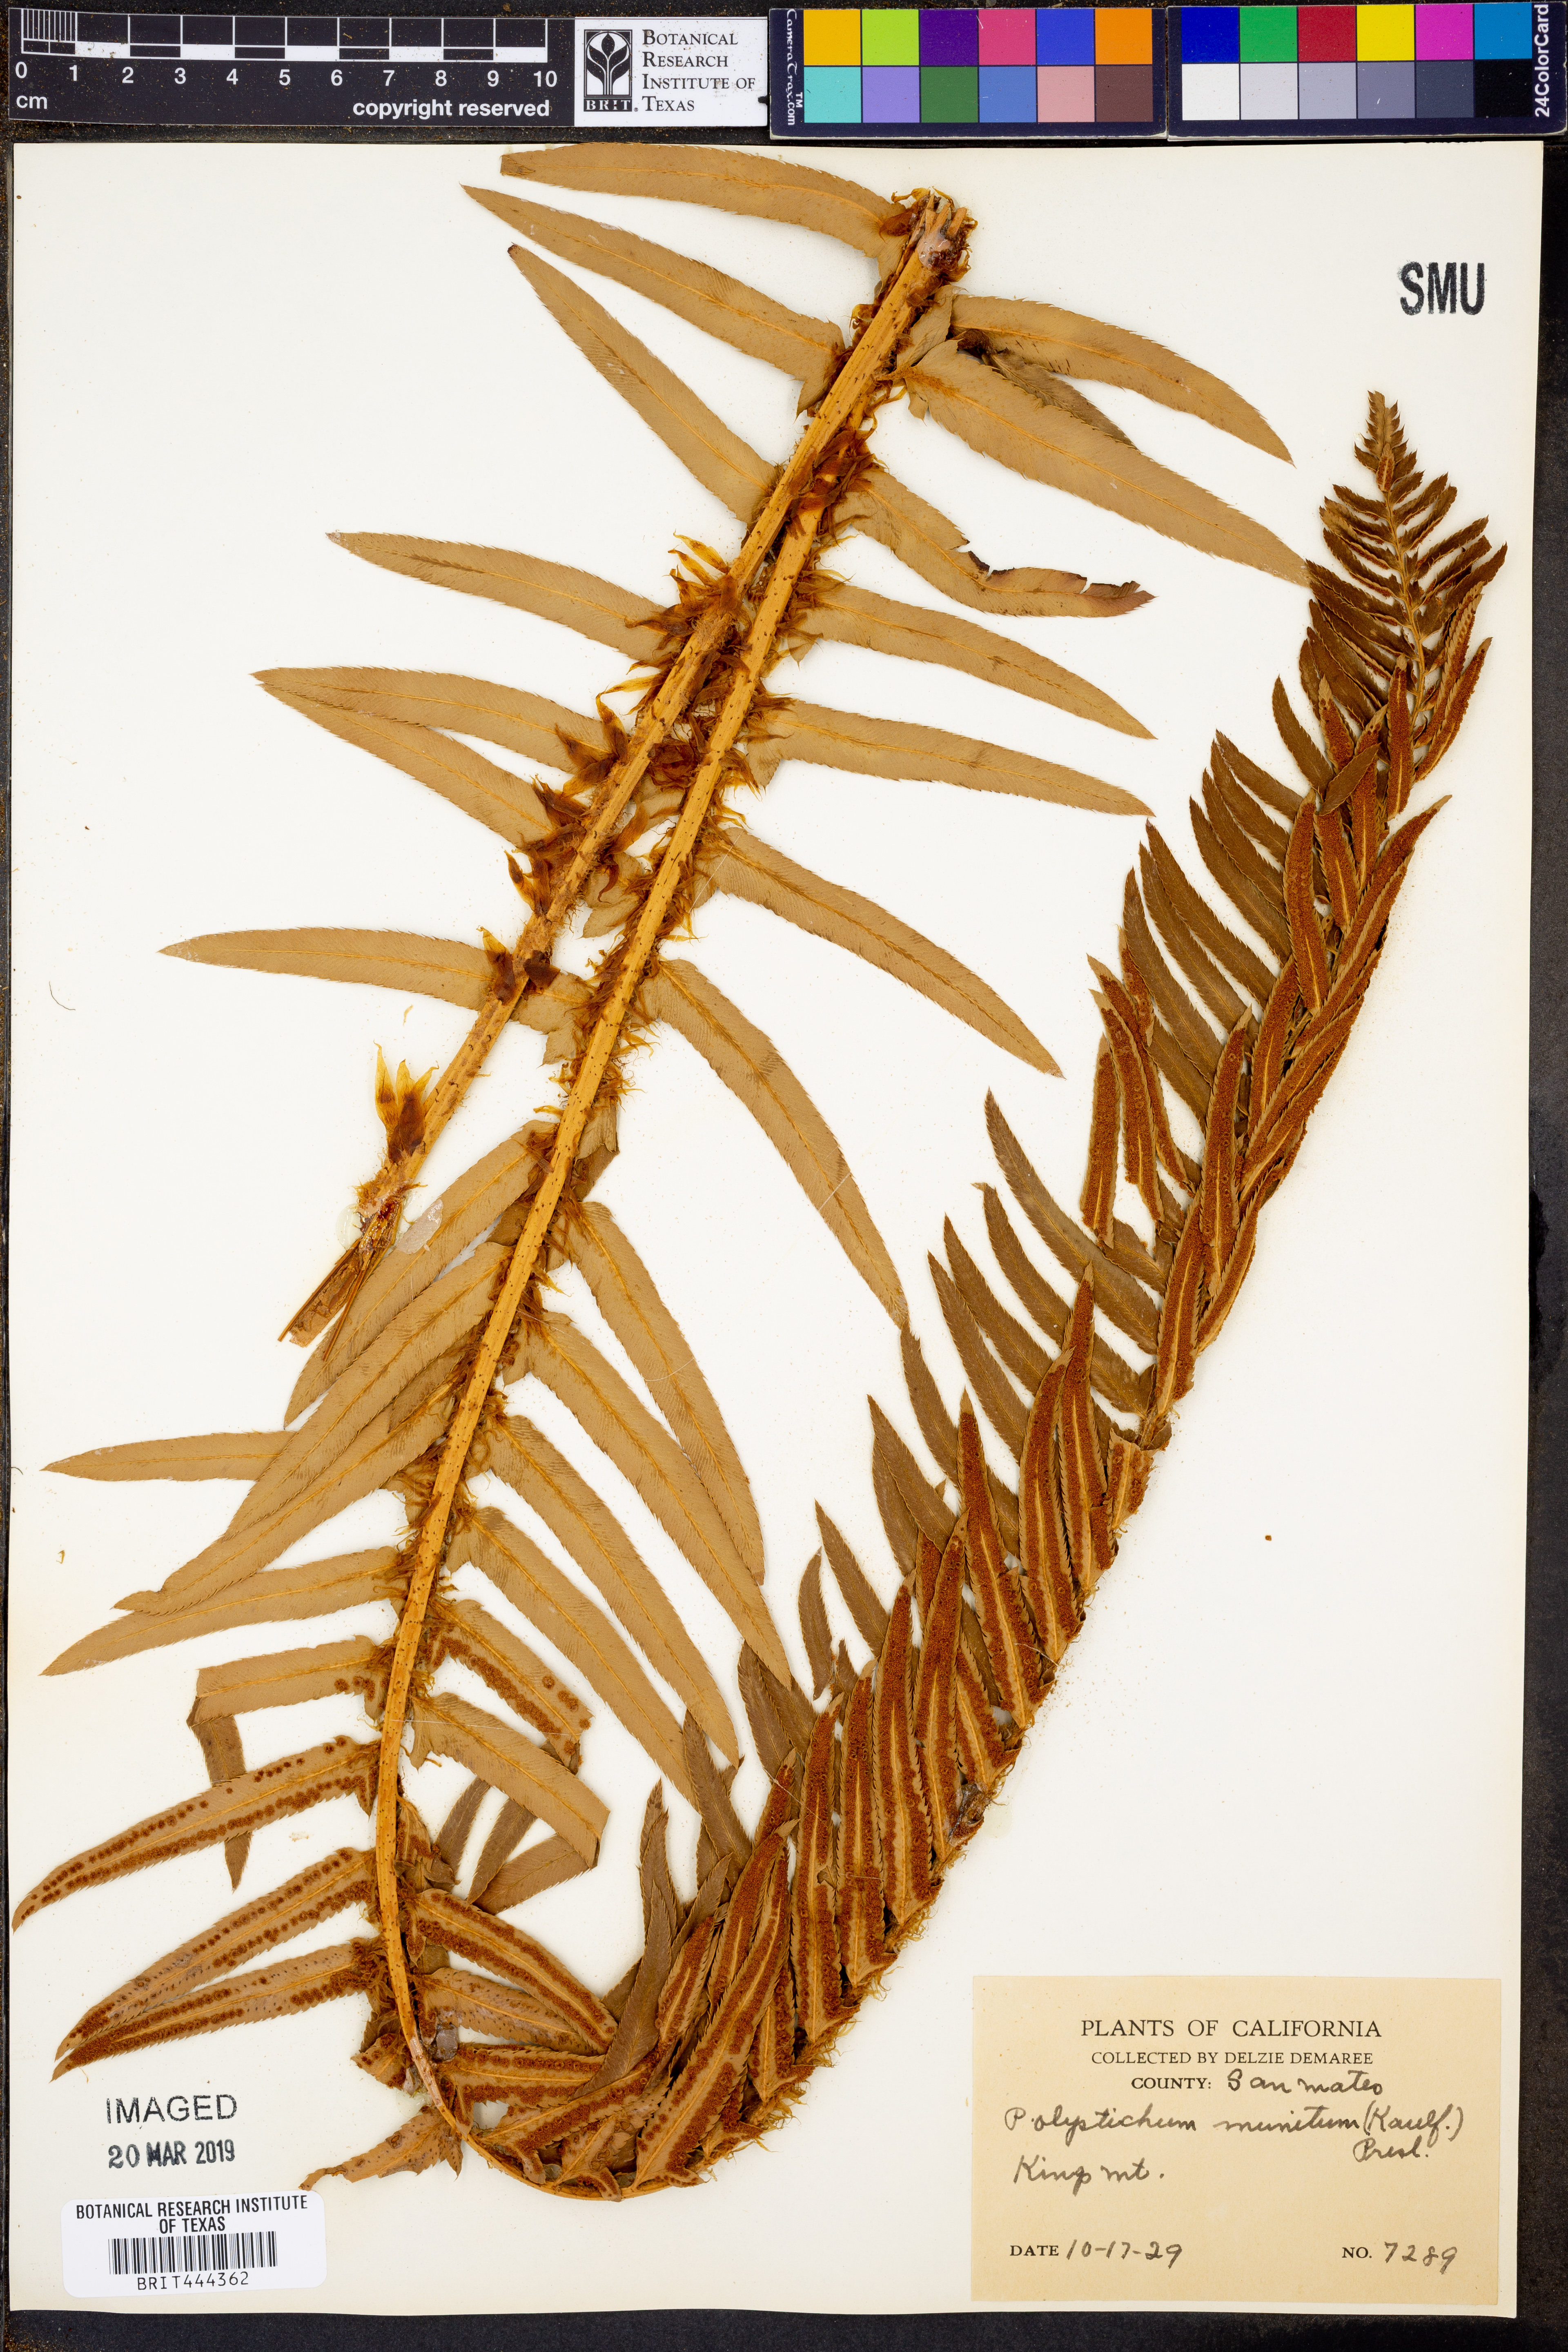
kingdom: Plantae
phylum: Tracheophyta
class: Polypodiopsida
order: Polypodiales
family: Dryopteridaceae
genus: Polystichum
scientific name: Polystichum munitum
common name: Western sword-fern
